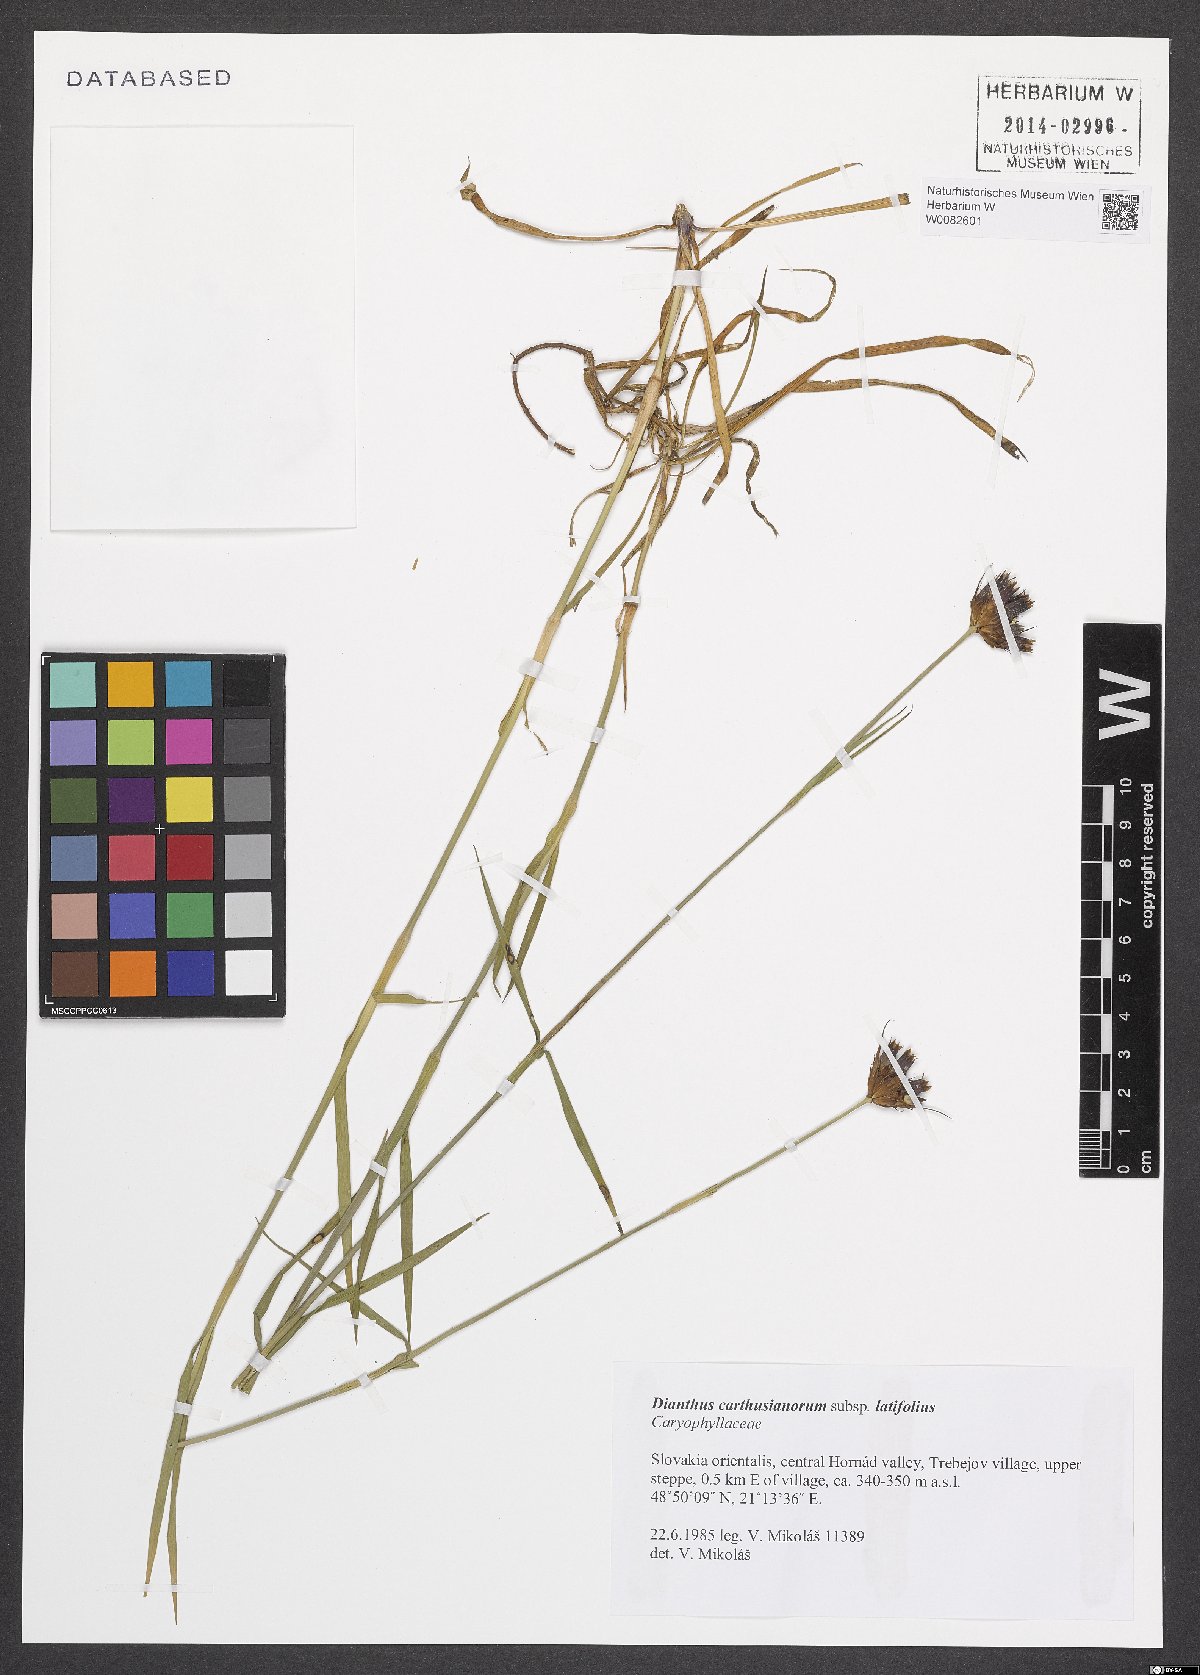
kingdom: Plantae
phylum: Tracheophyta
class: Magnoliopsida
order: Caryophyllales
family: Caryophyllaceae
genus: Dianthus
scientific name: Dianthus carthusianorum
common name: Carthusian pink
